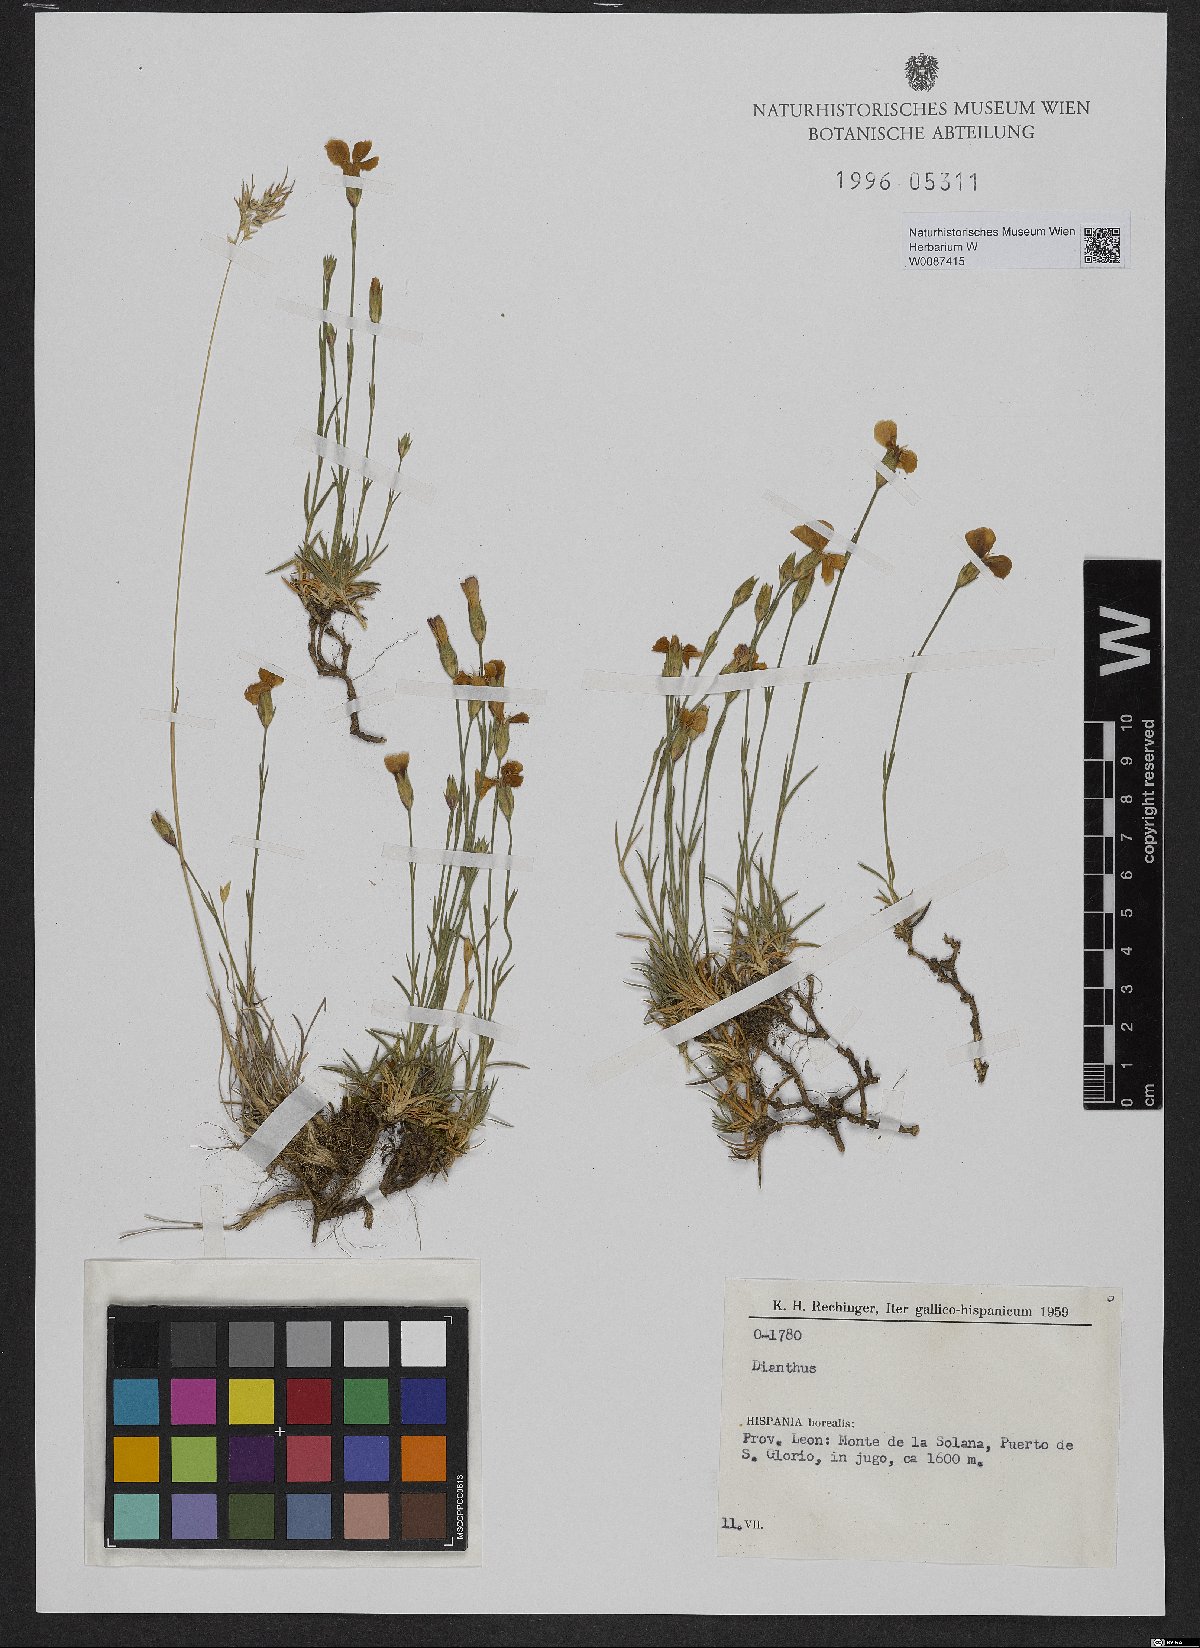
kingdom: Plantae
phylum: Tracheophyta
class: Magnoliopsida
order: Caryophyllales
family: Caryophyllaceae
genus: Dianthus
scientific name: Dianthus
